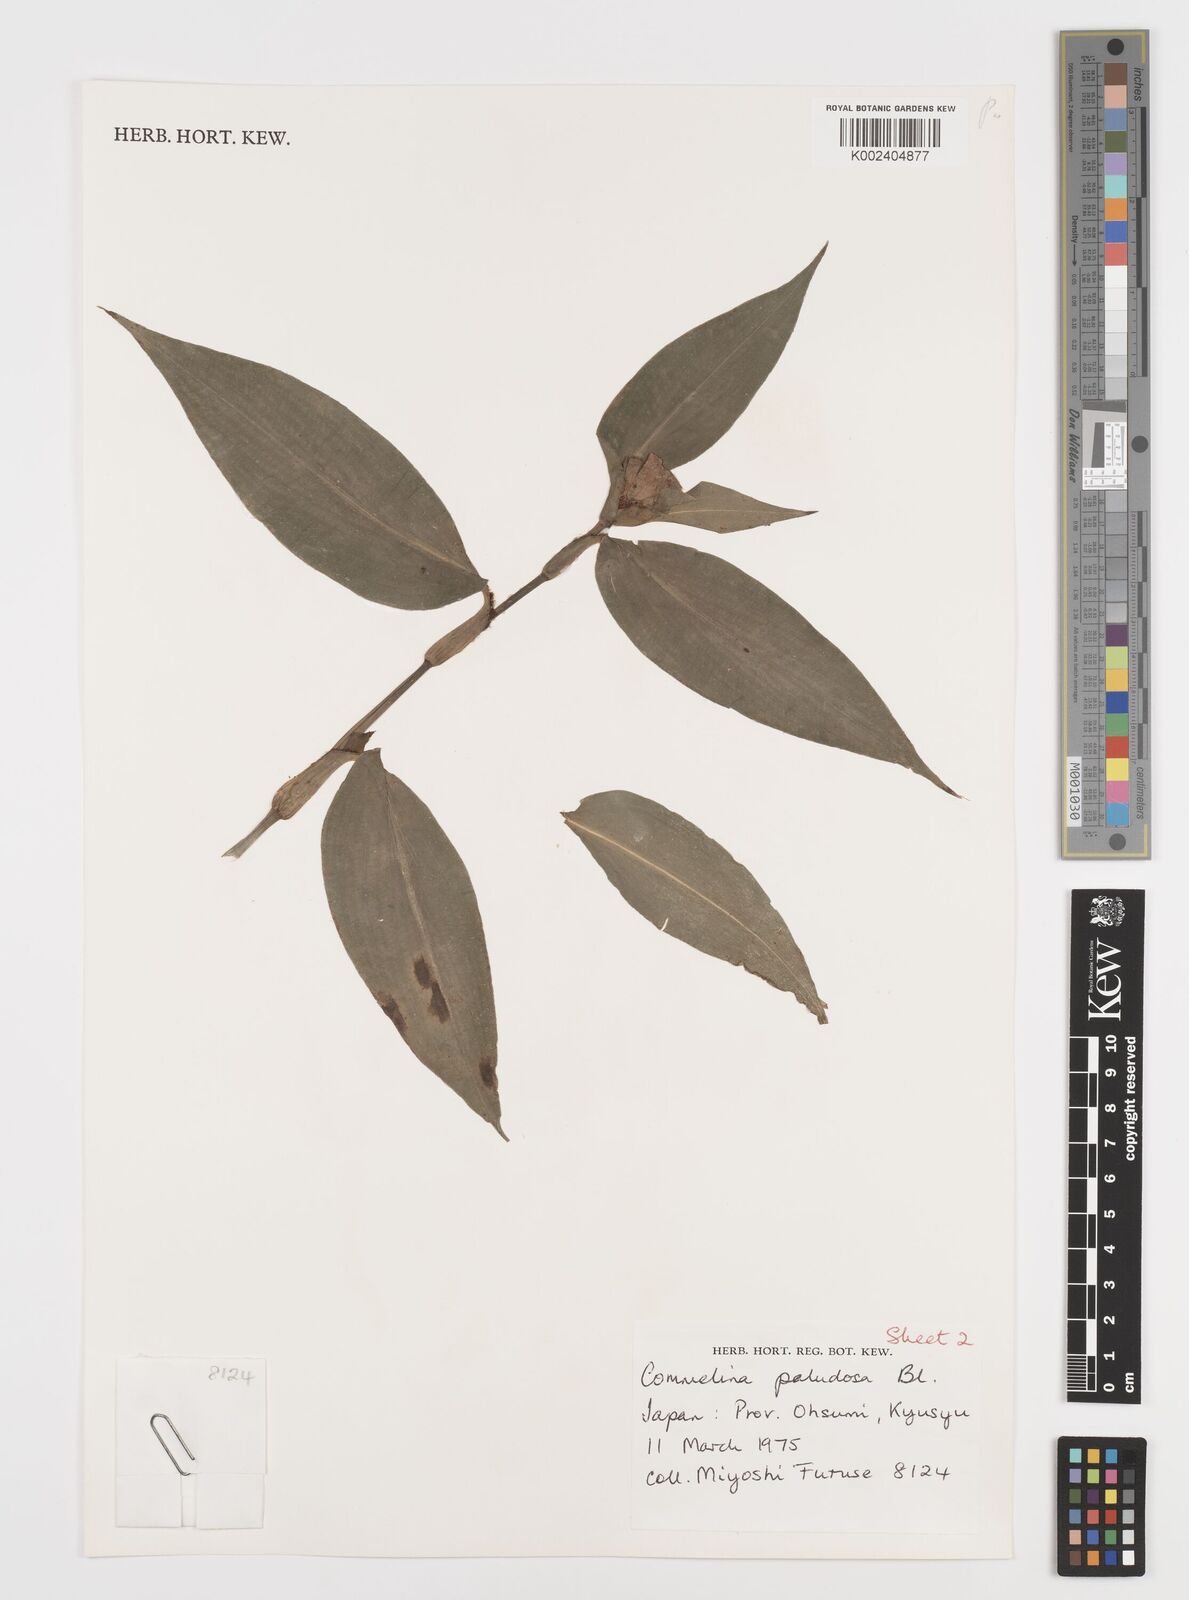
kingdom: Plantae
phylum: Tracheophyta
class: Liliopsida
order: Commelinales
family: Commelinaceae
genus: Commelina
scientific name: Commelina paludosa
